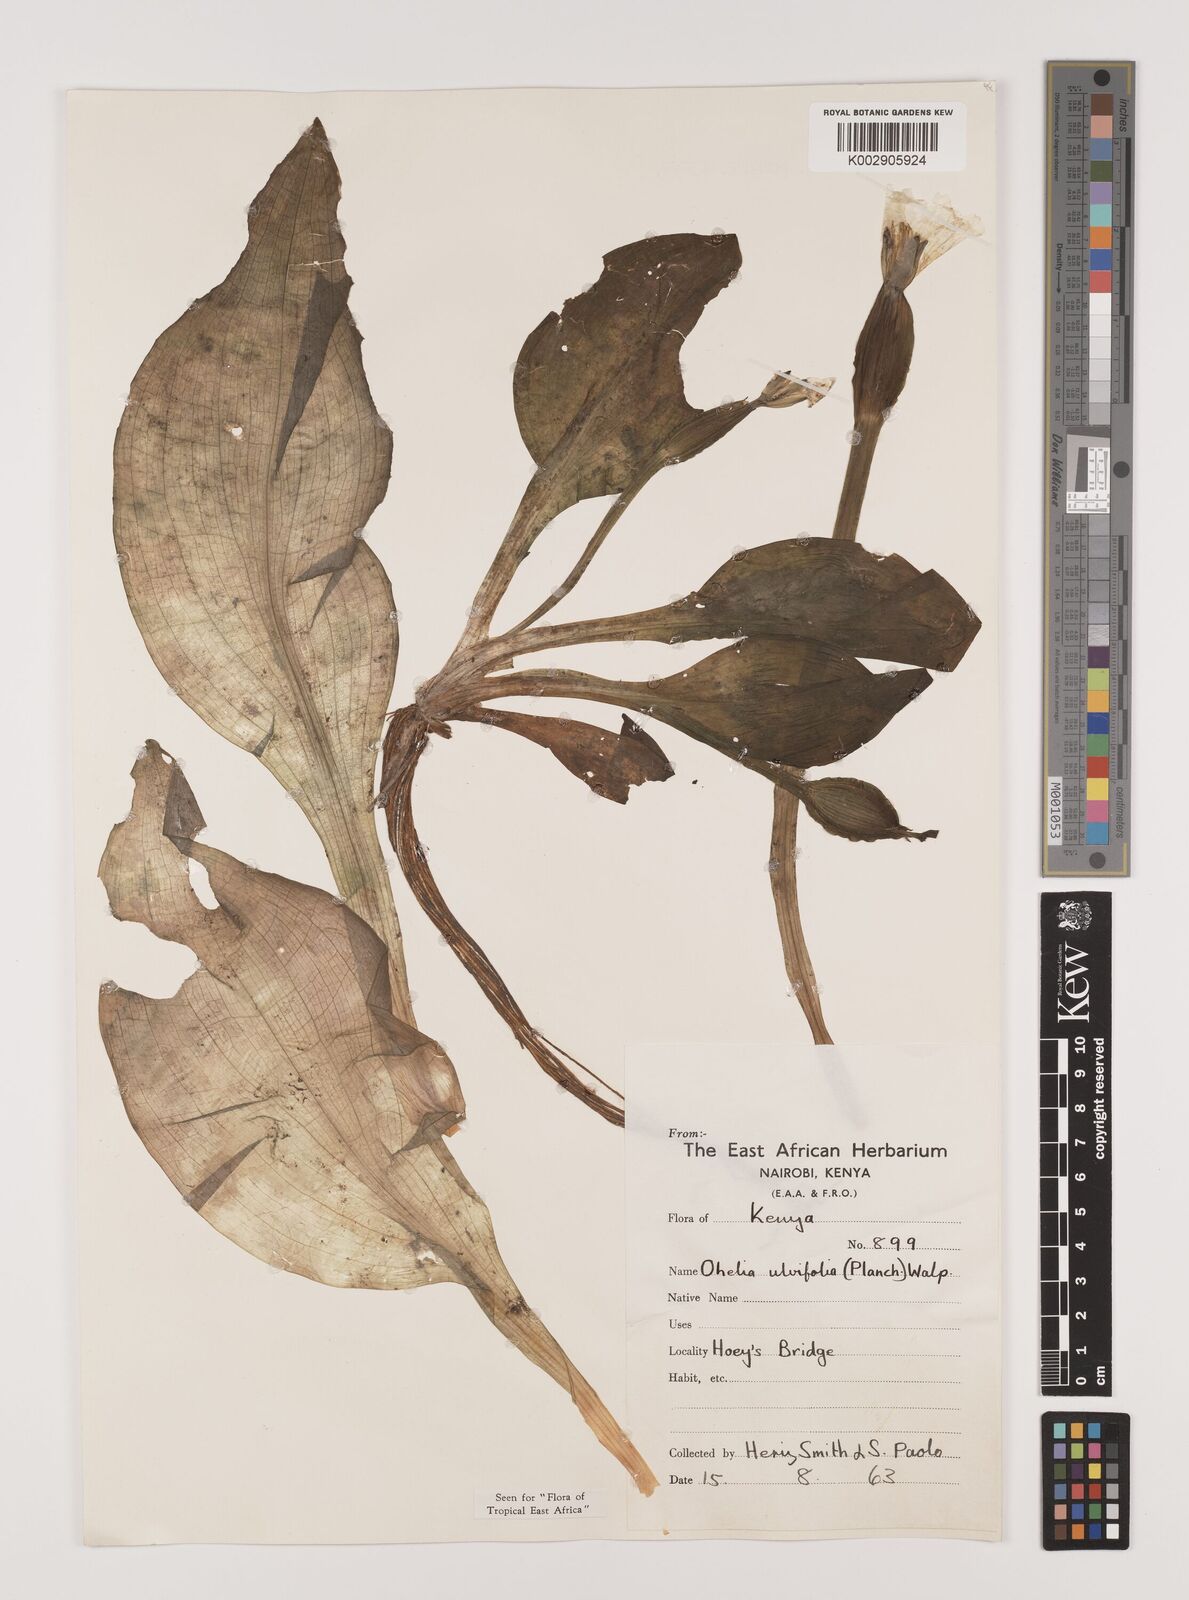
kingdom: Plantae
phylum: Tracheophyta
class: Liliopsida
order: Alismatales
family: Hydrocharitaceae
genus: Ottelia
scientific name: Ottelia ulvifolia
